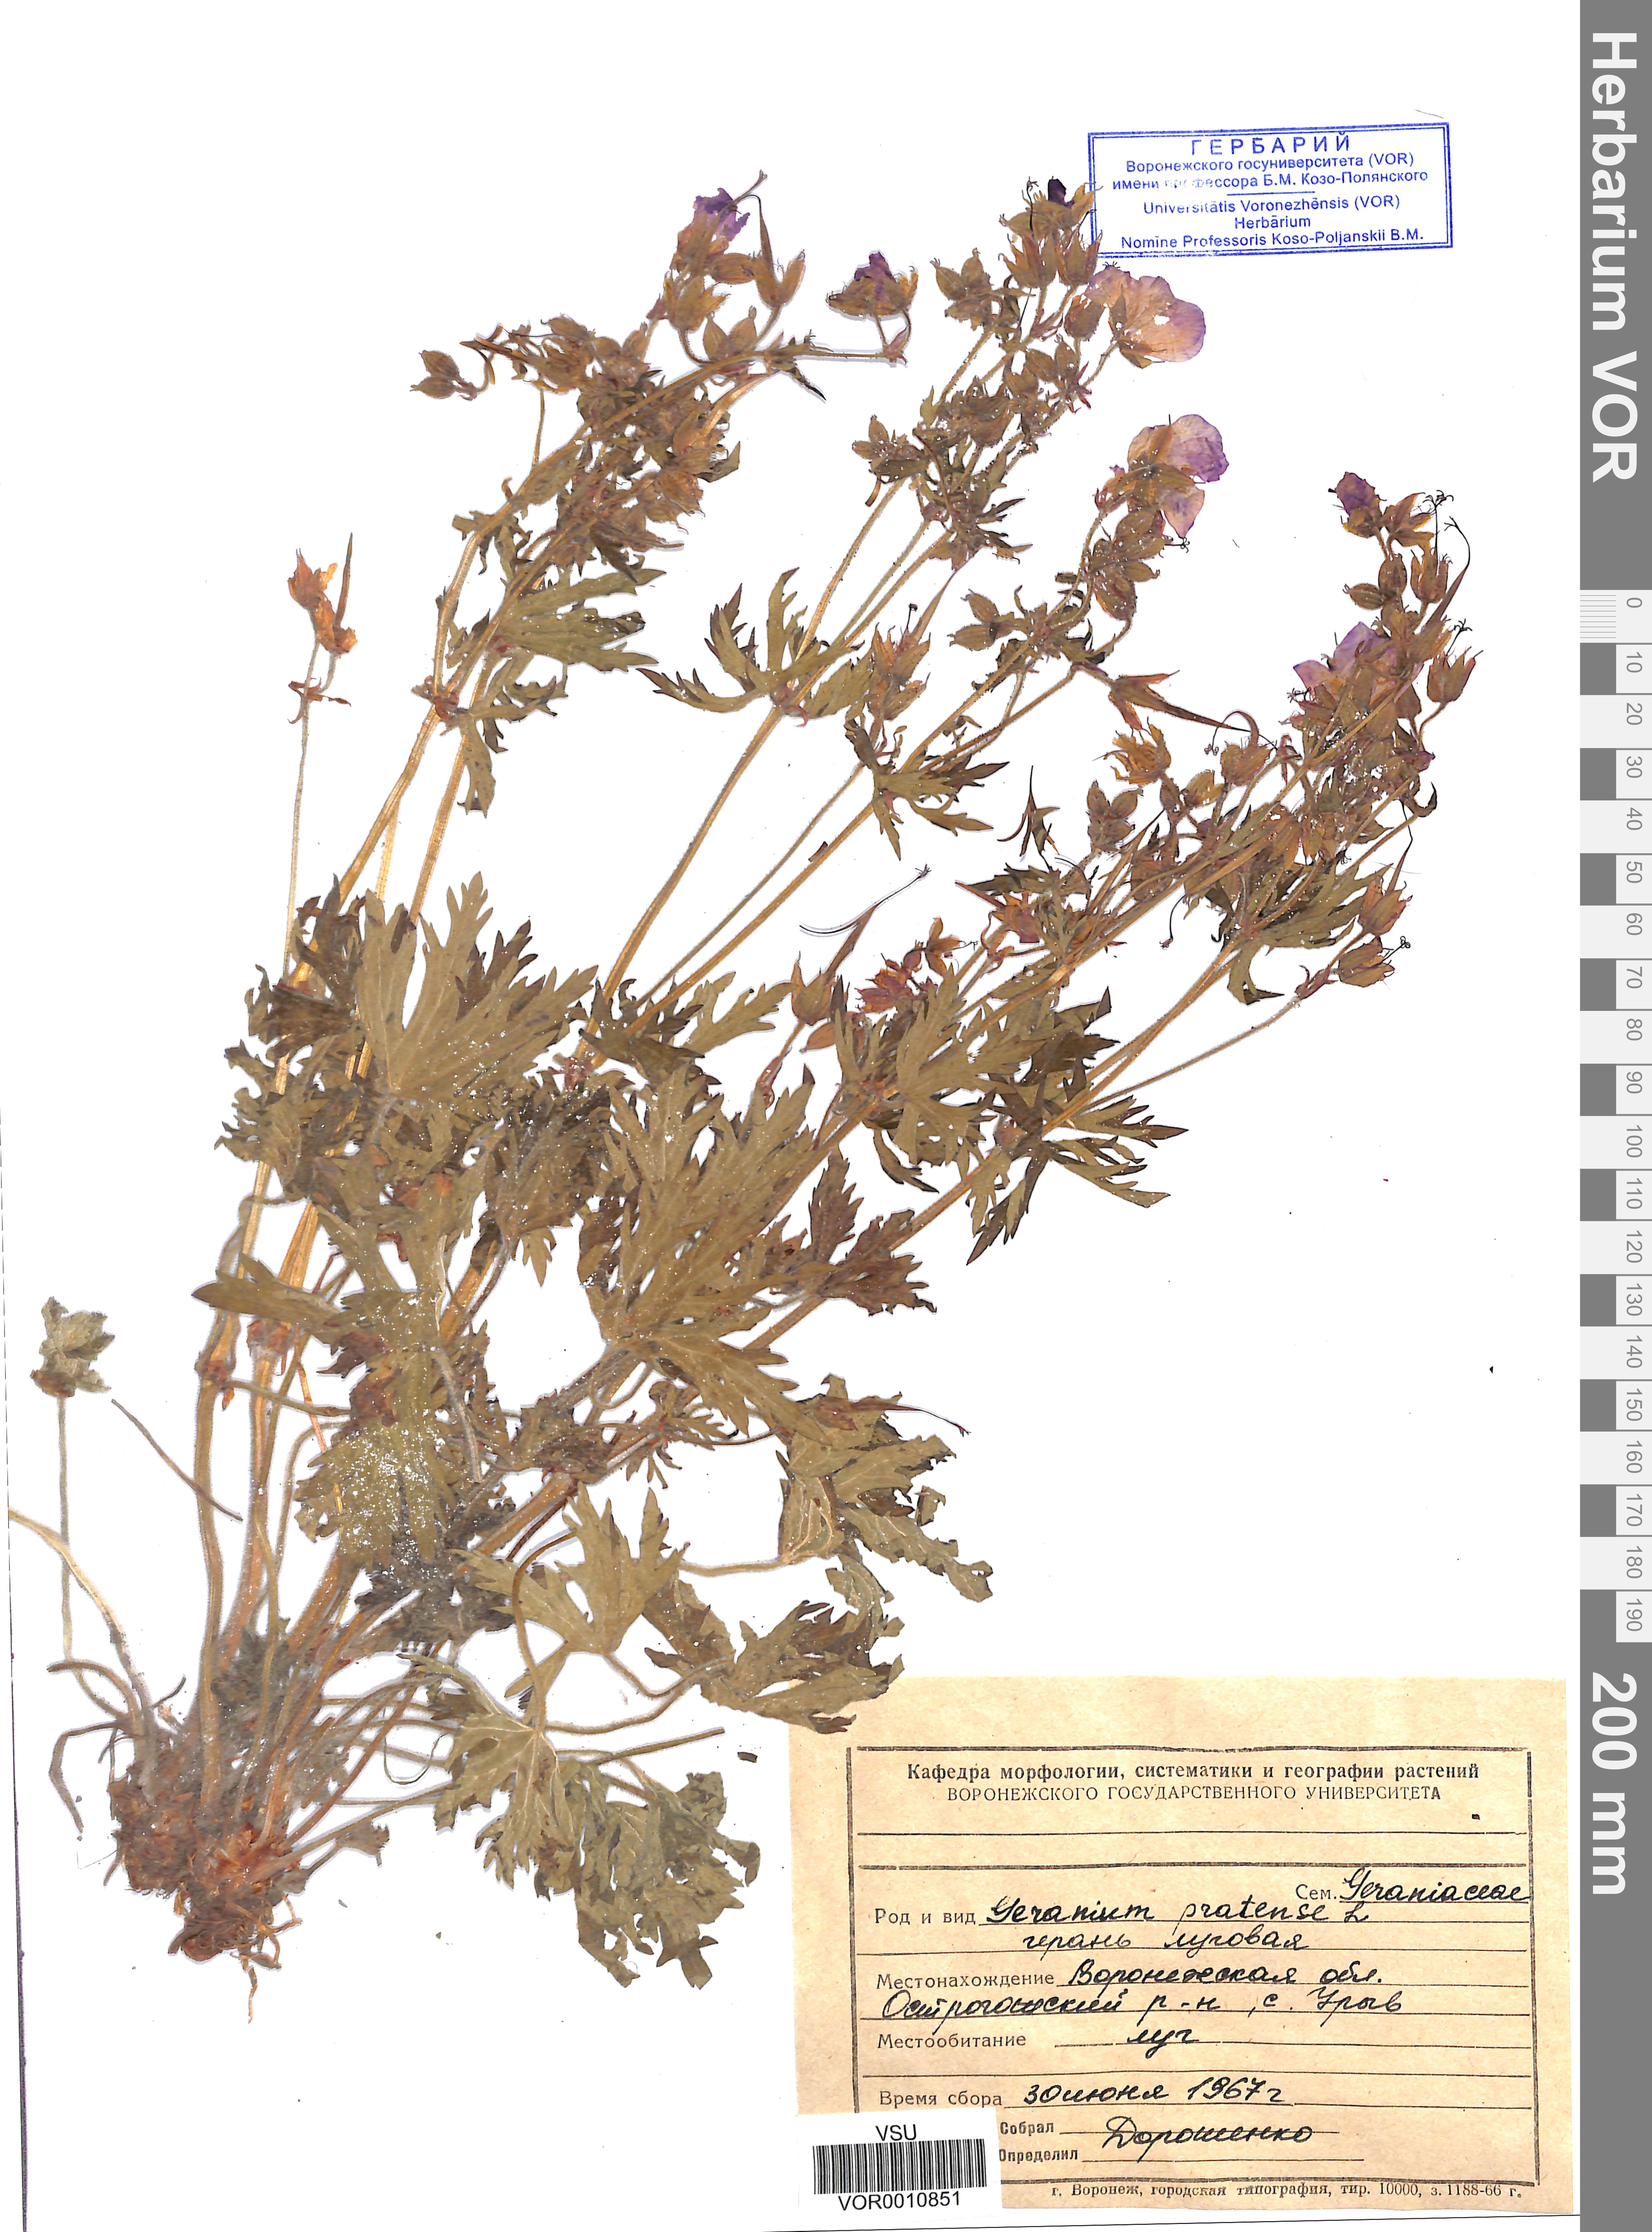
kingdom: Plantae
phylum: Tracheophyta
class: Magnoliopsida
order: Geraniales
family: Geraniaceae
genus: Geranium
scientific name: Geranium pratense
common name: Meadow crane's-bill
